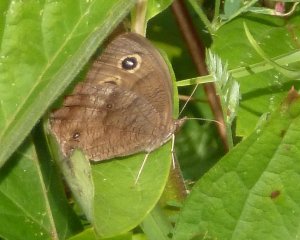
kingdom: Animalia
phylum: Arthropoda
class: Insecta
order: Lepidoptera
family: Nymphalidae
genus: Cercyonis
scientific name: Cercyonis pegala
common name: Common Wood-Nymph
